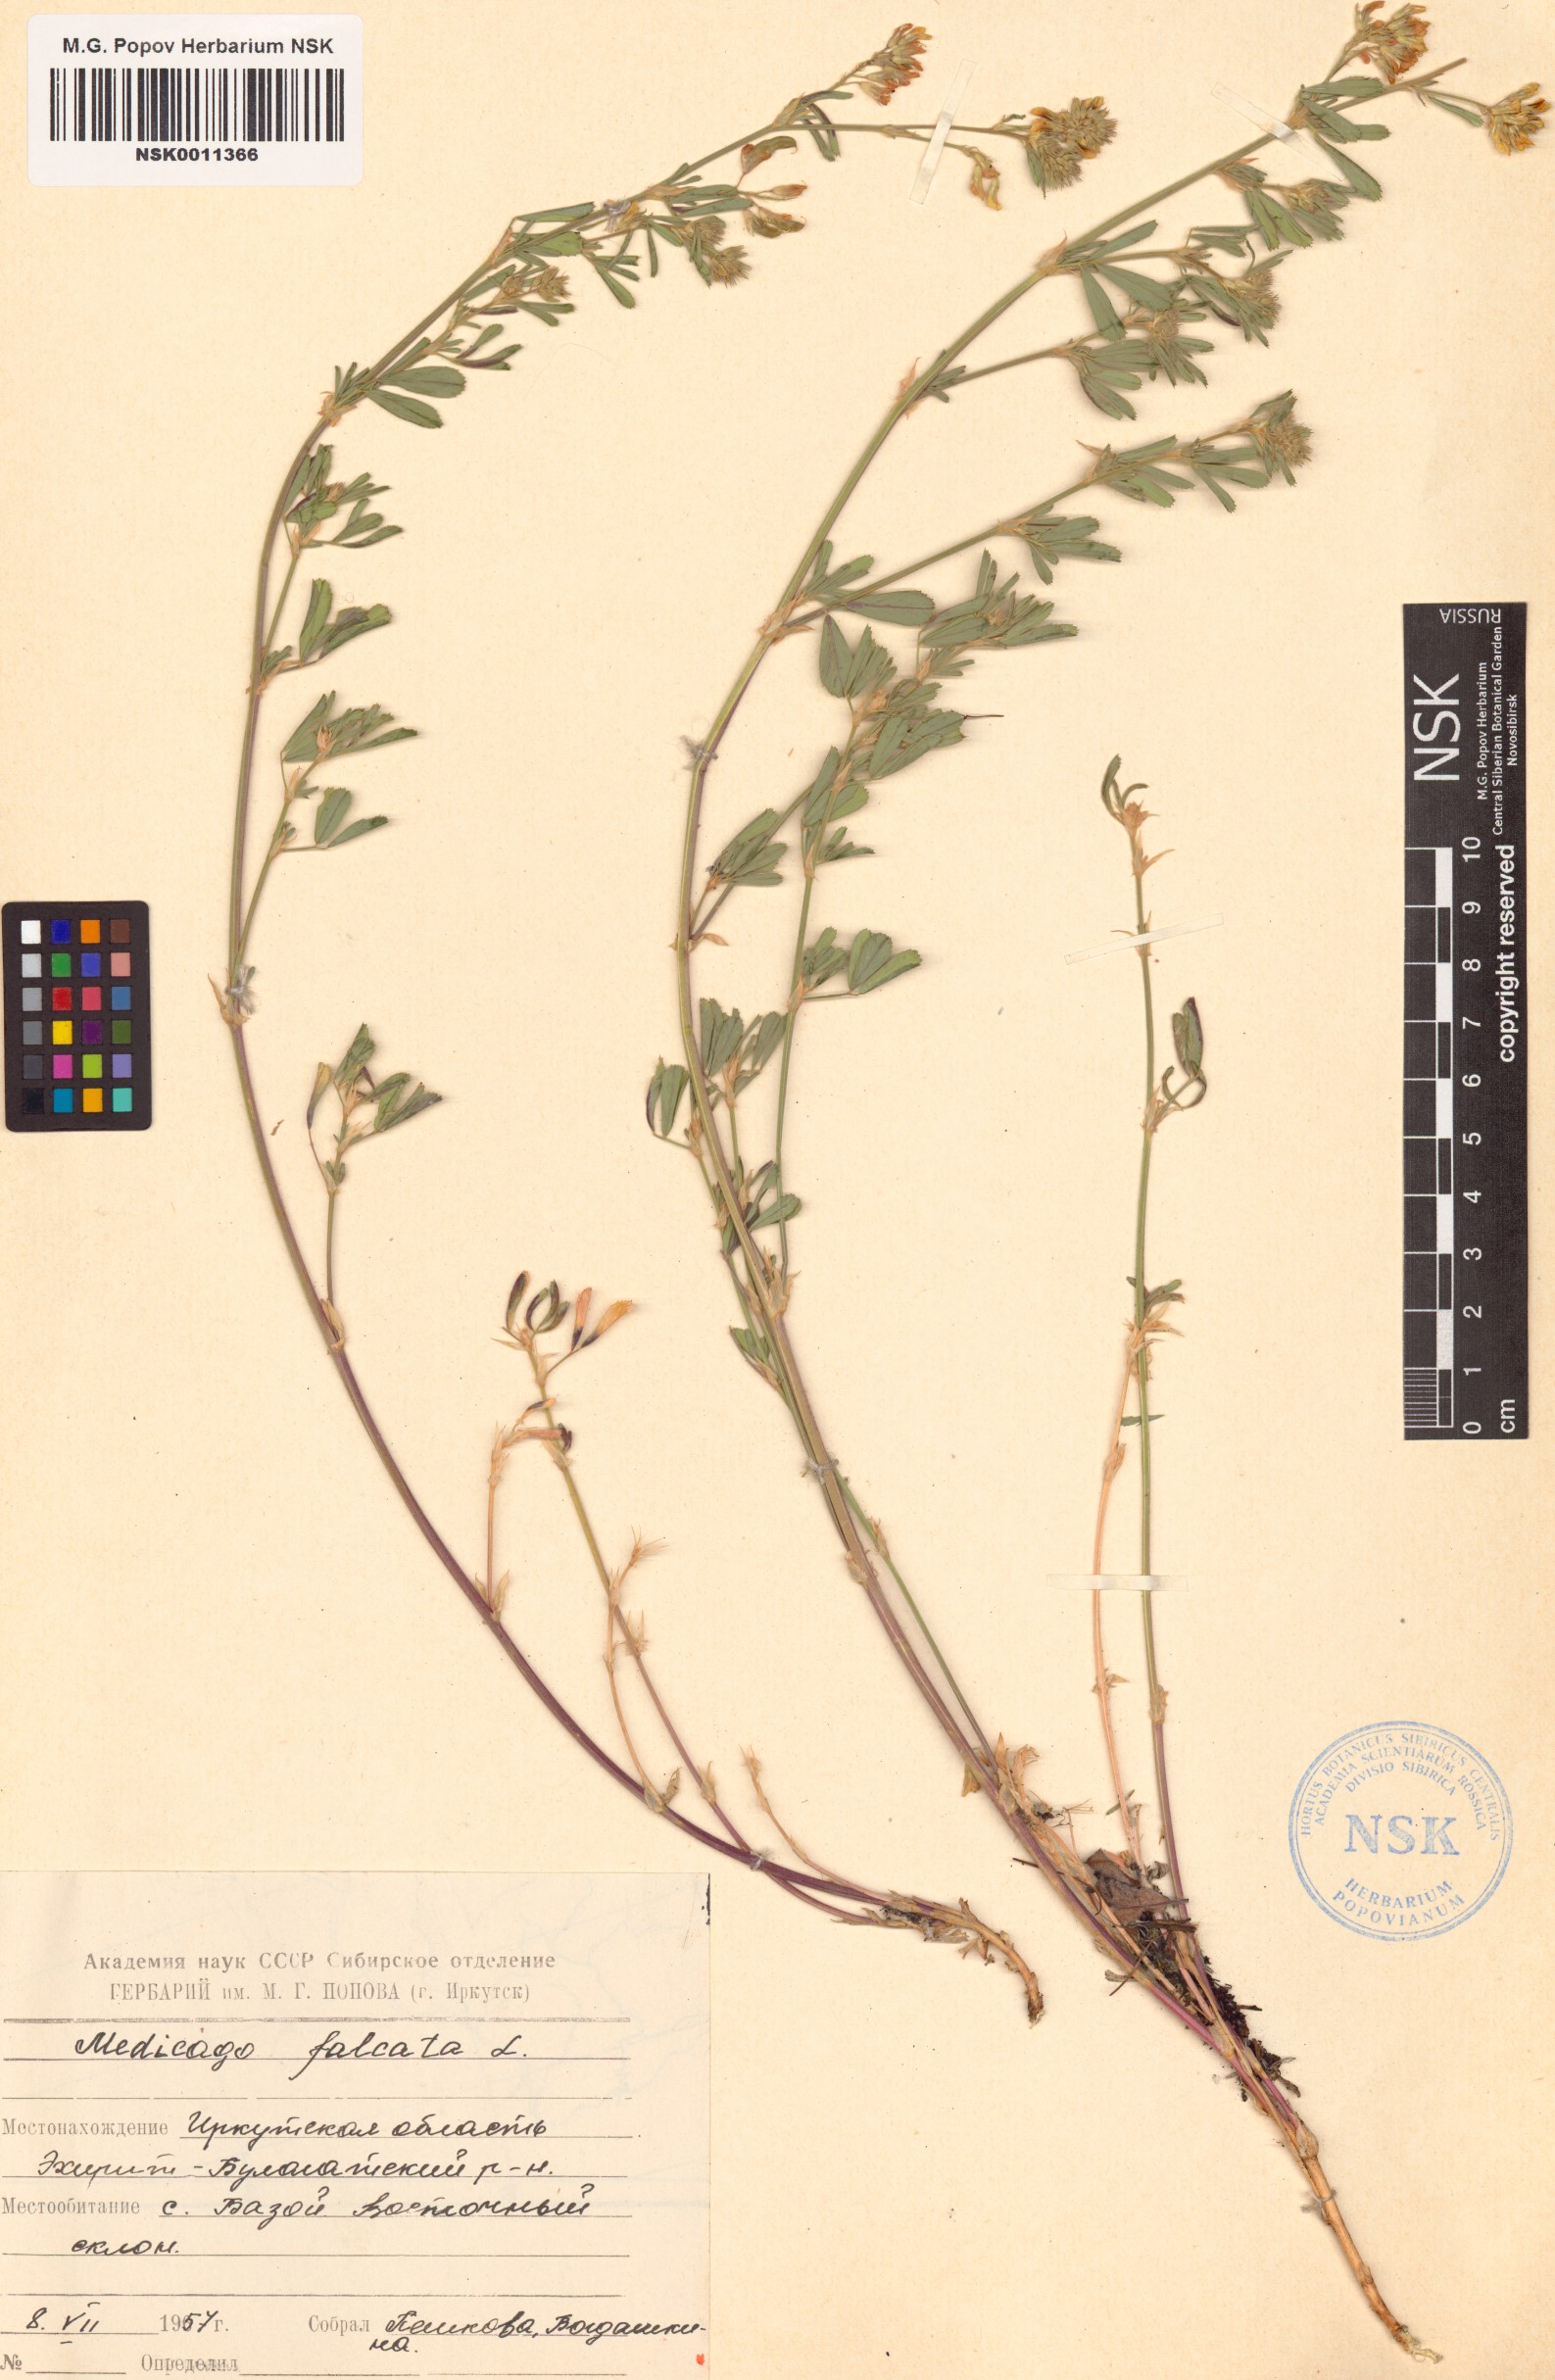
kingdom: Plantae
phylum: Tracheophyta
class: Magnoliopsida
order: Fabales
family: Fabaceae
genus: Medicago
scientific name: Medicago falcata
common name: Sickle medick
